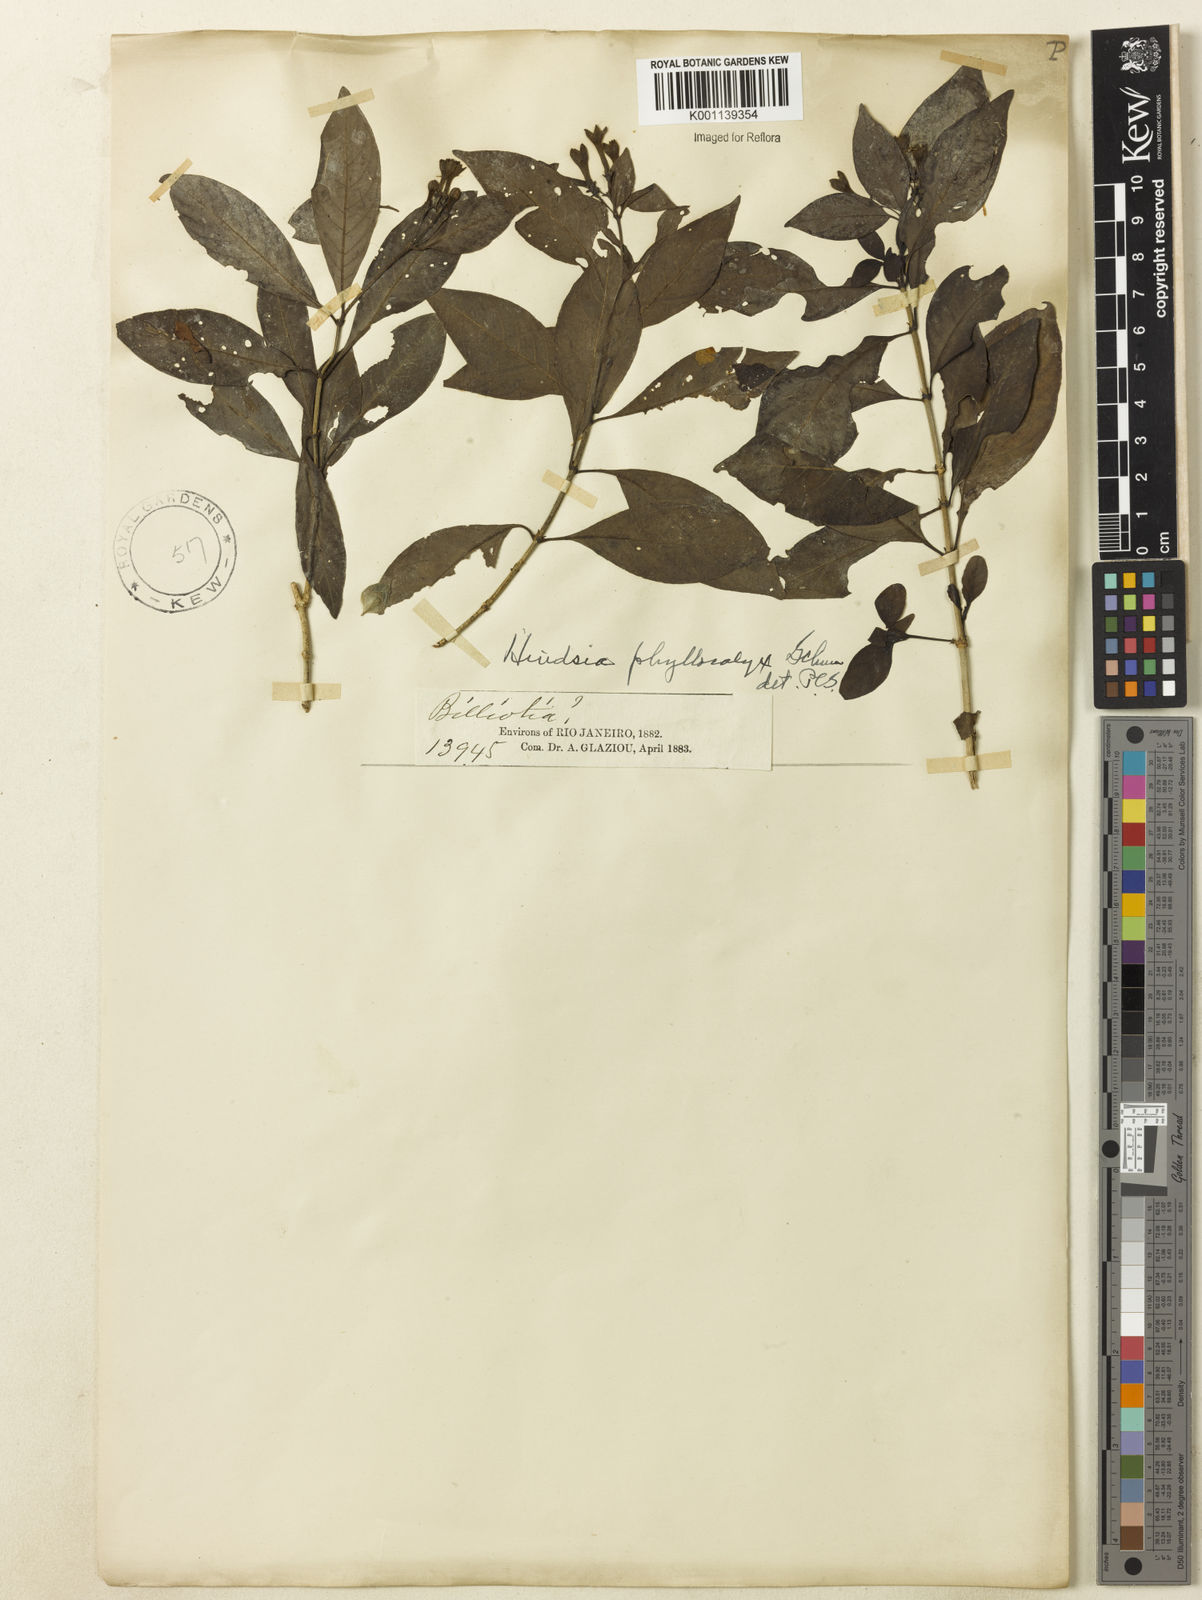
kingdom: Plantae
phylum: Tracheophyta
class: Magnoliopsida
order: Gentianales
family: Rubiaceae
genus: Hindsia
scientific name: Hindsia phyllocalyx
